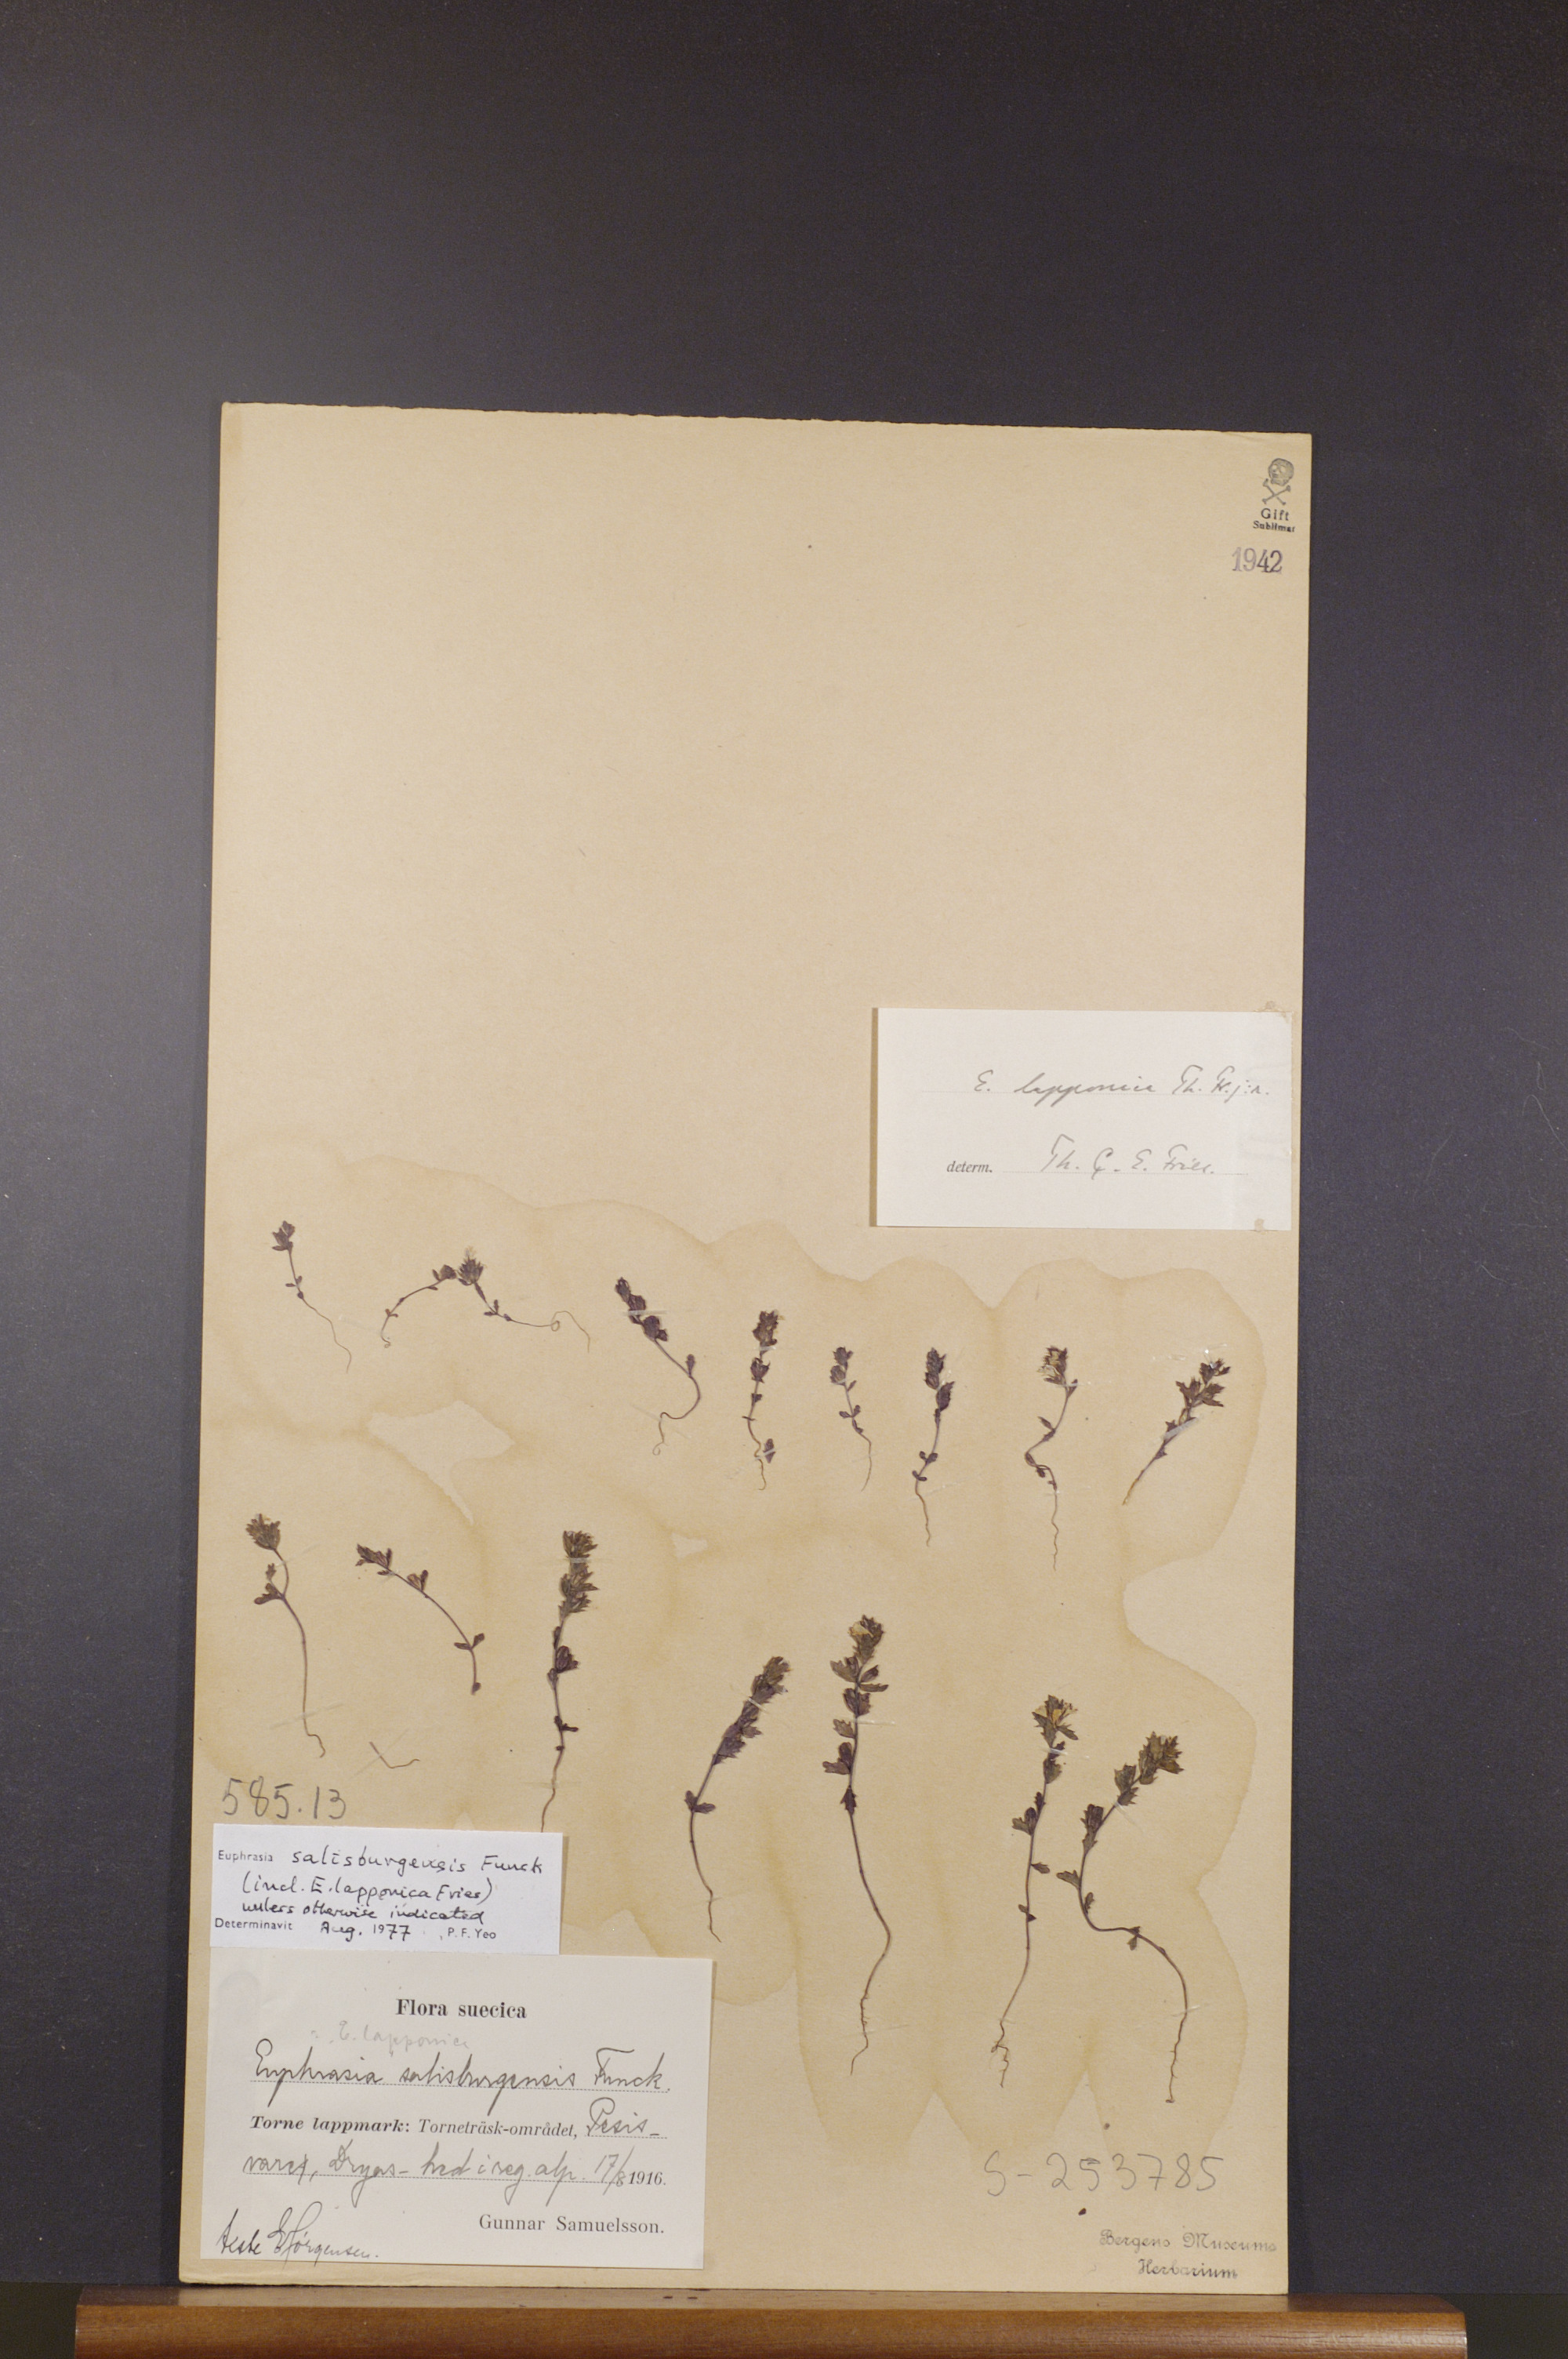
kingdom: Plantae
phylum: Tracheophyta
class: Magnoliopsida
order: Lamiales
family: Orobanchaceae
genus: Euphrasia
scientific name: Euphrasia salisburgensis
